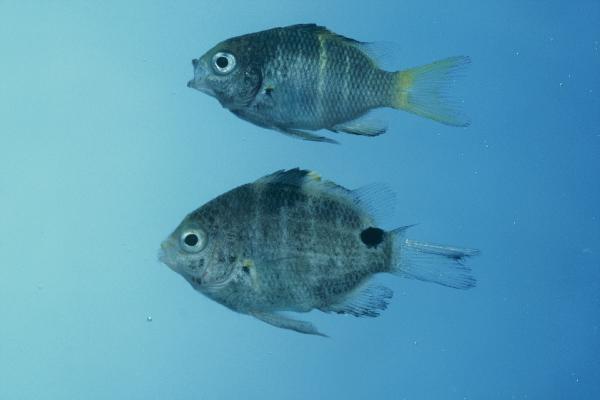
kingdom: Animalia
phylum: Chordata
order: Perciformes
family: Pomacentridae
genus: Abudefduf
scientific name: Abudefduf sordidus
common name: Blackspot sergeant
